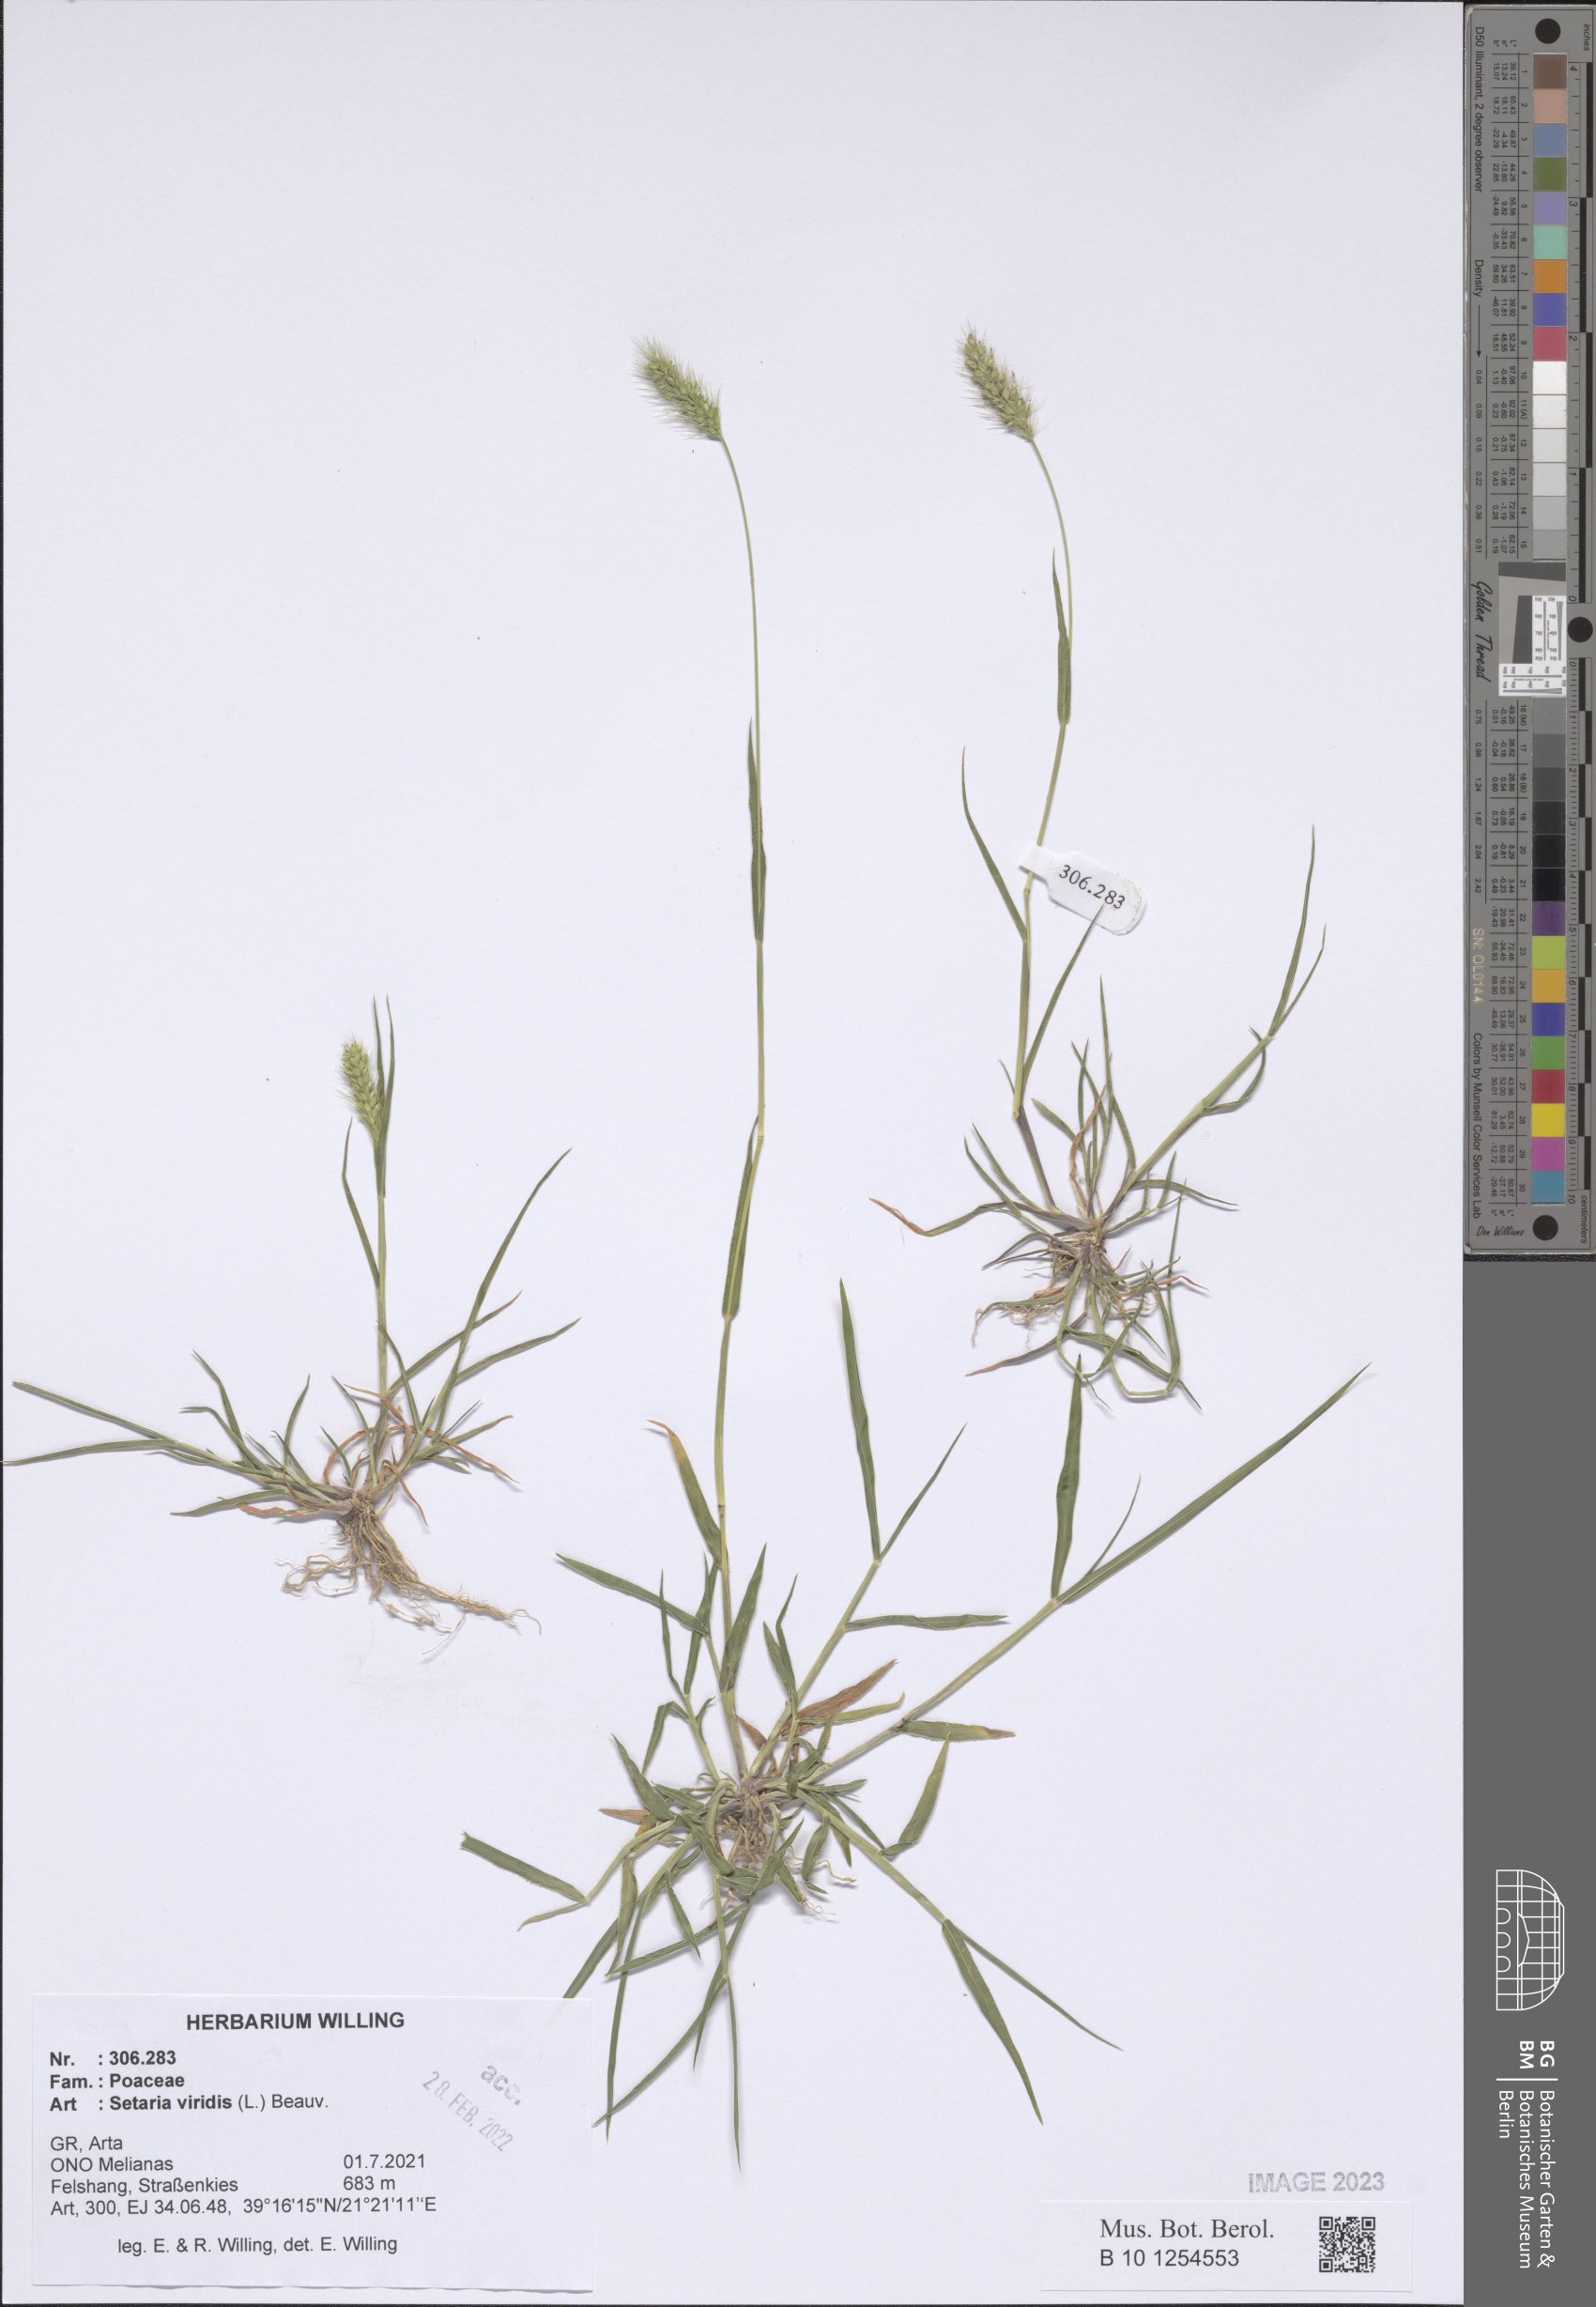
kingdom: Plantae
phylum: Tracheophyta
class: Liliopsida
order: Poales
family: Poaceae
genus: Setaria
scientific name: Setaria viridis
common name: Green bristlegrass
